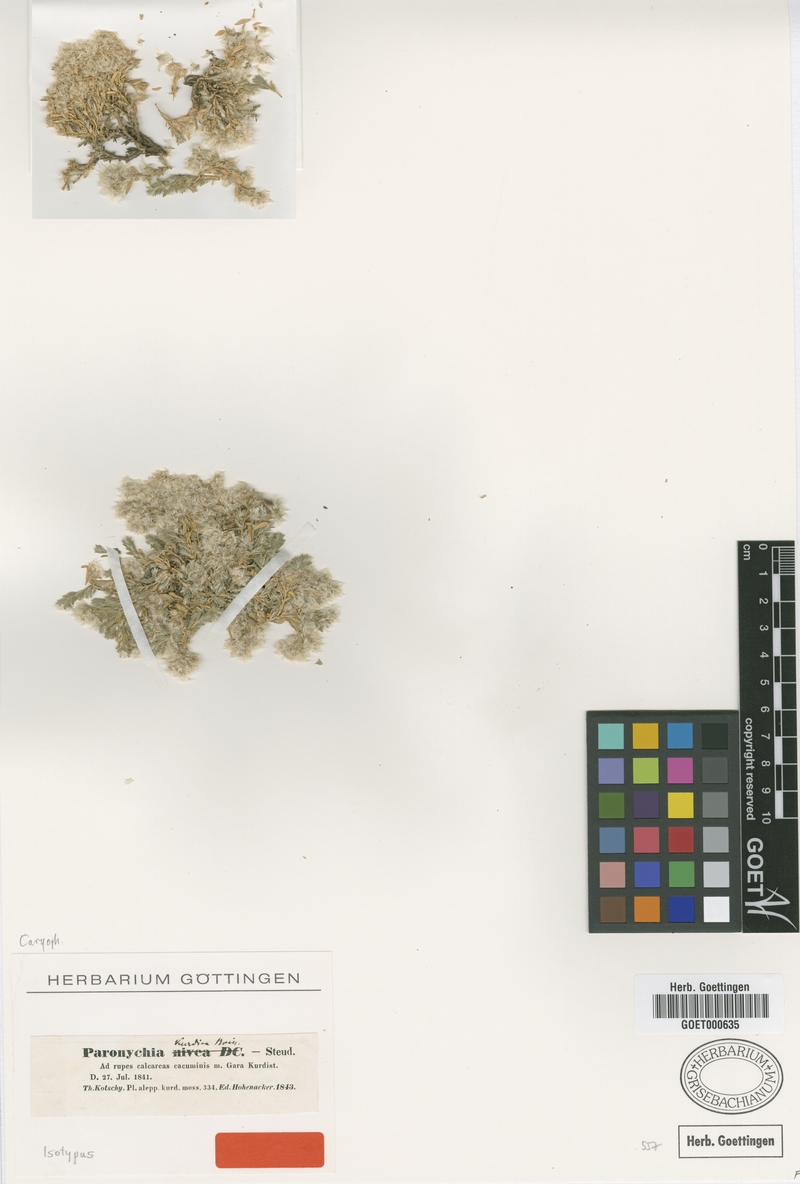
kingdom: Plantae
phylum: Tracheophyta
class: Magnoliopsida
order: Caryophyllales
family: Caryophyllaceae
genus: Paronychia
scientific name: Paronychia kurdica
